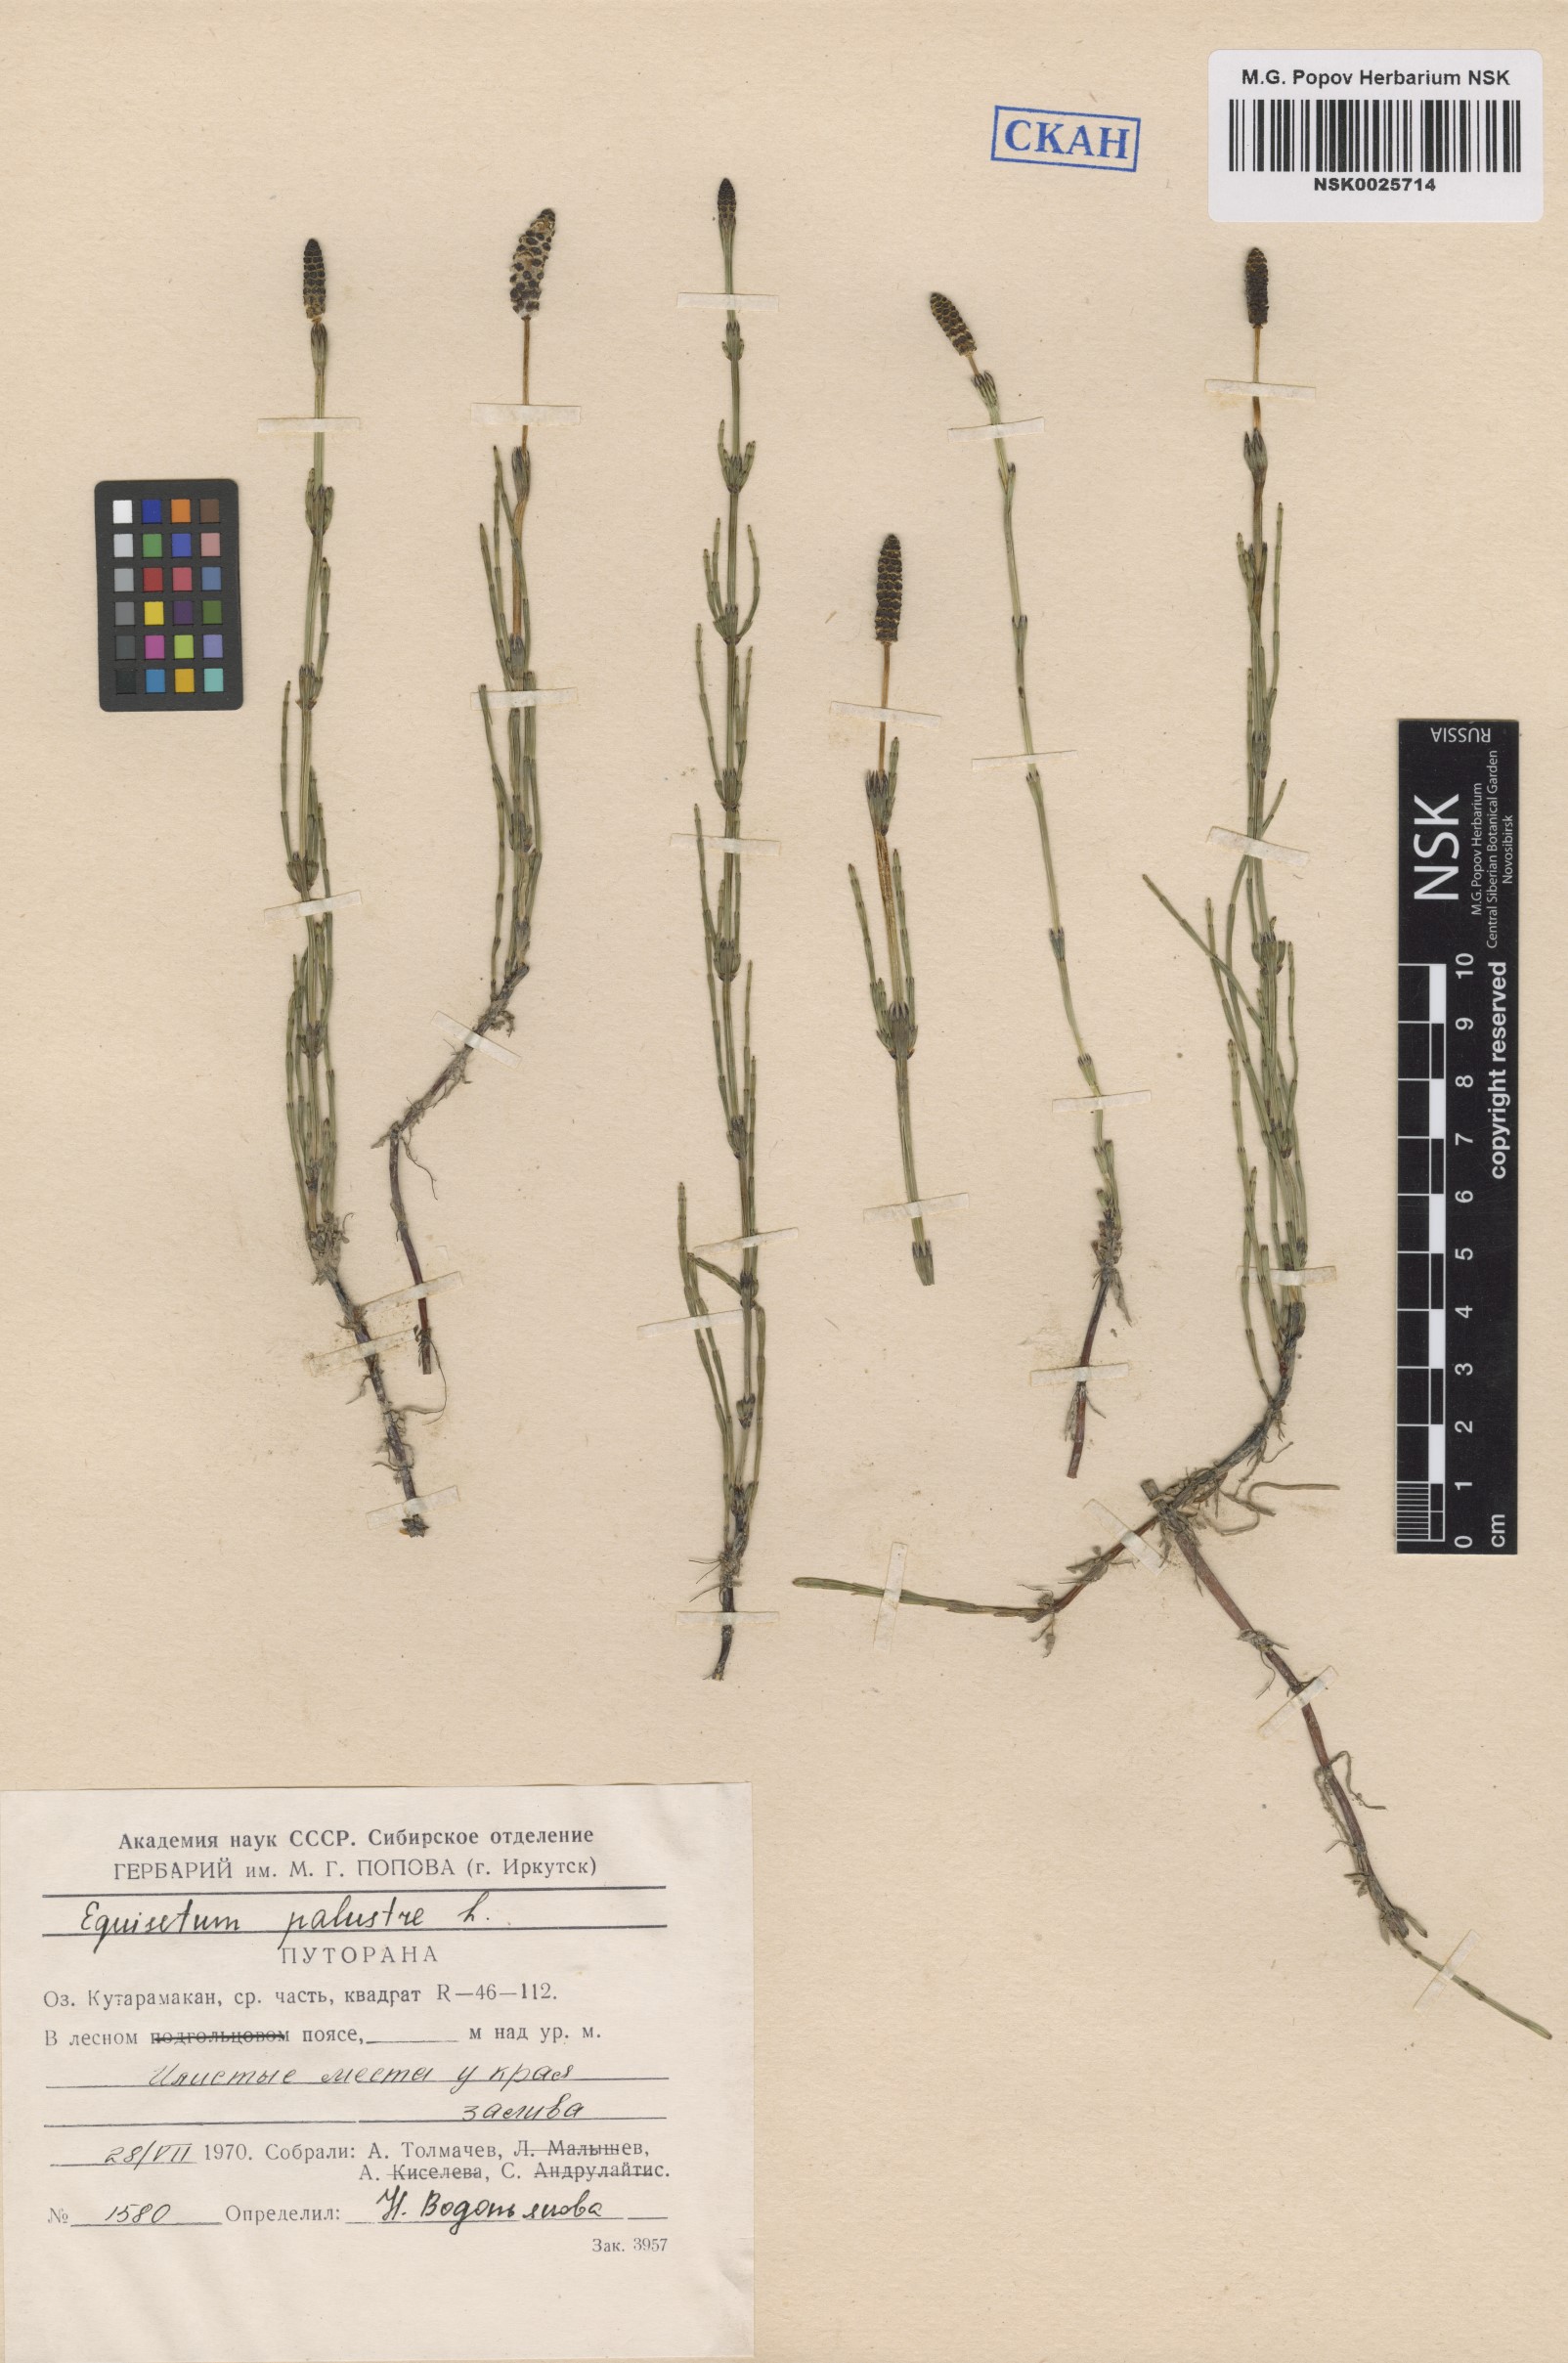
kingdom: Plantae
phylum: Tracheophyta
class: Polypodiopsida
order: Equisetales
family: Equisetaceae
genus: Equisetum
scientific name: Equisetum palustre
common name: Marsh horsetail
